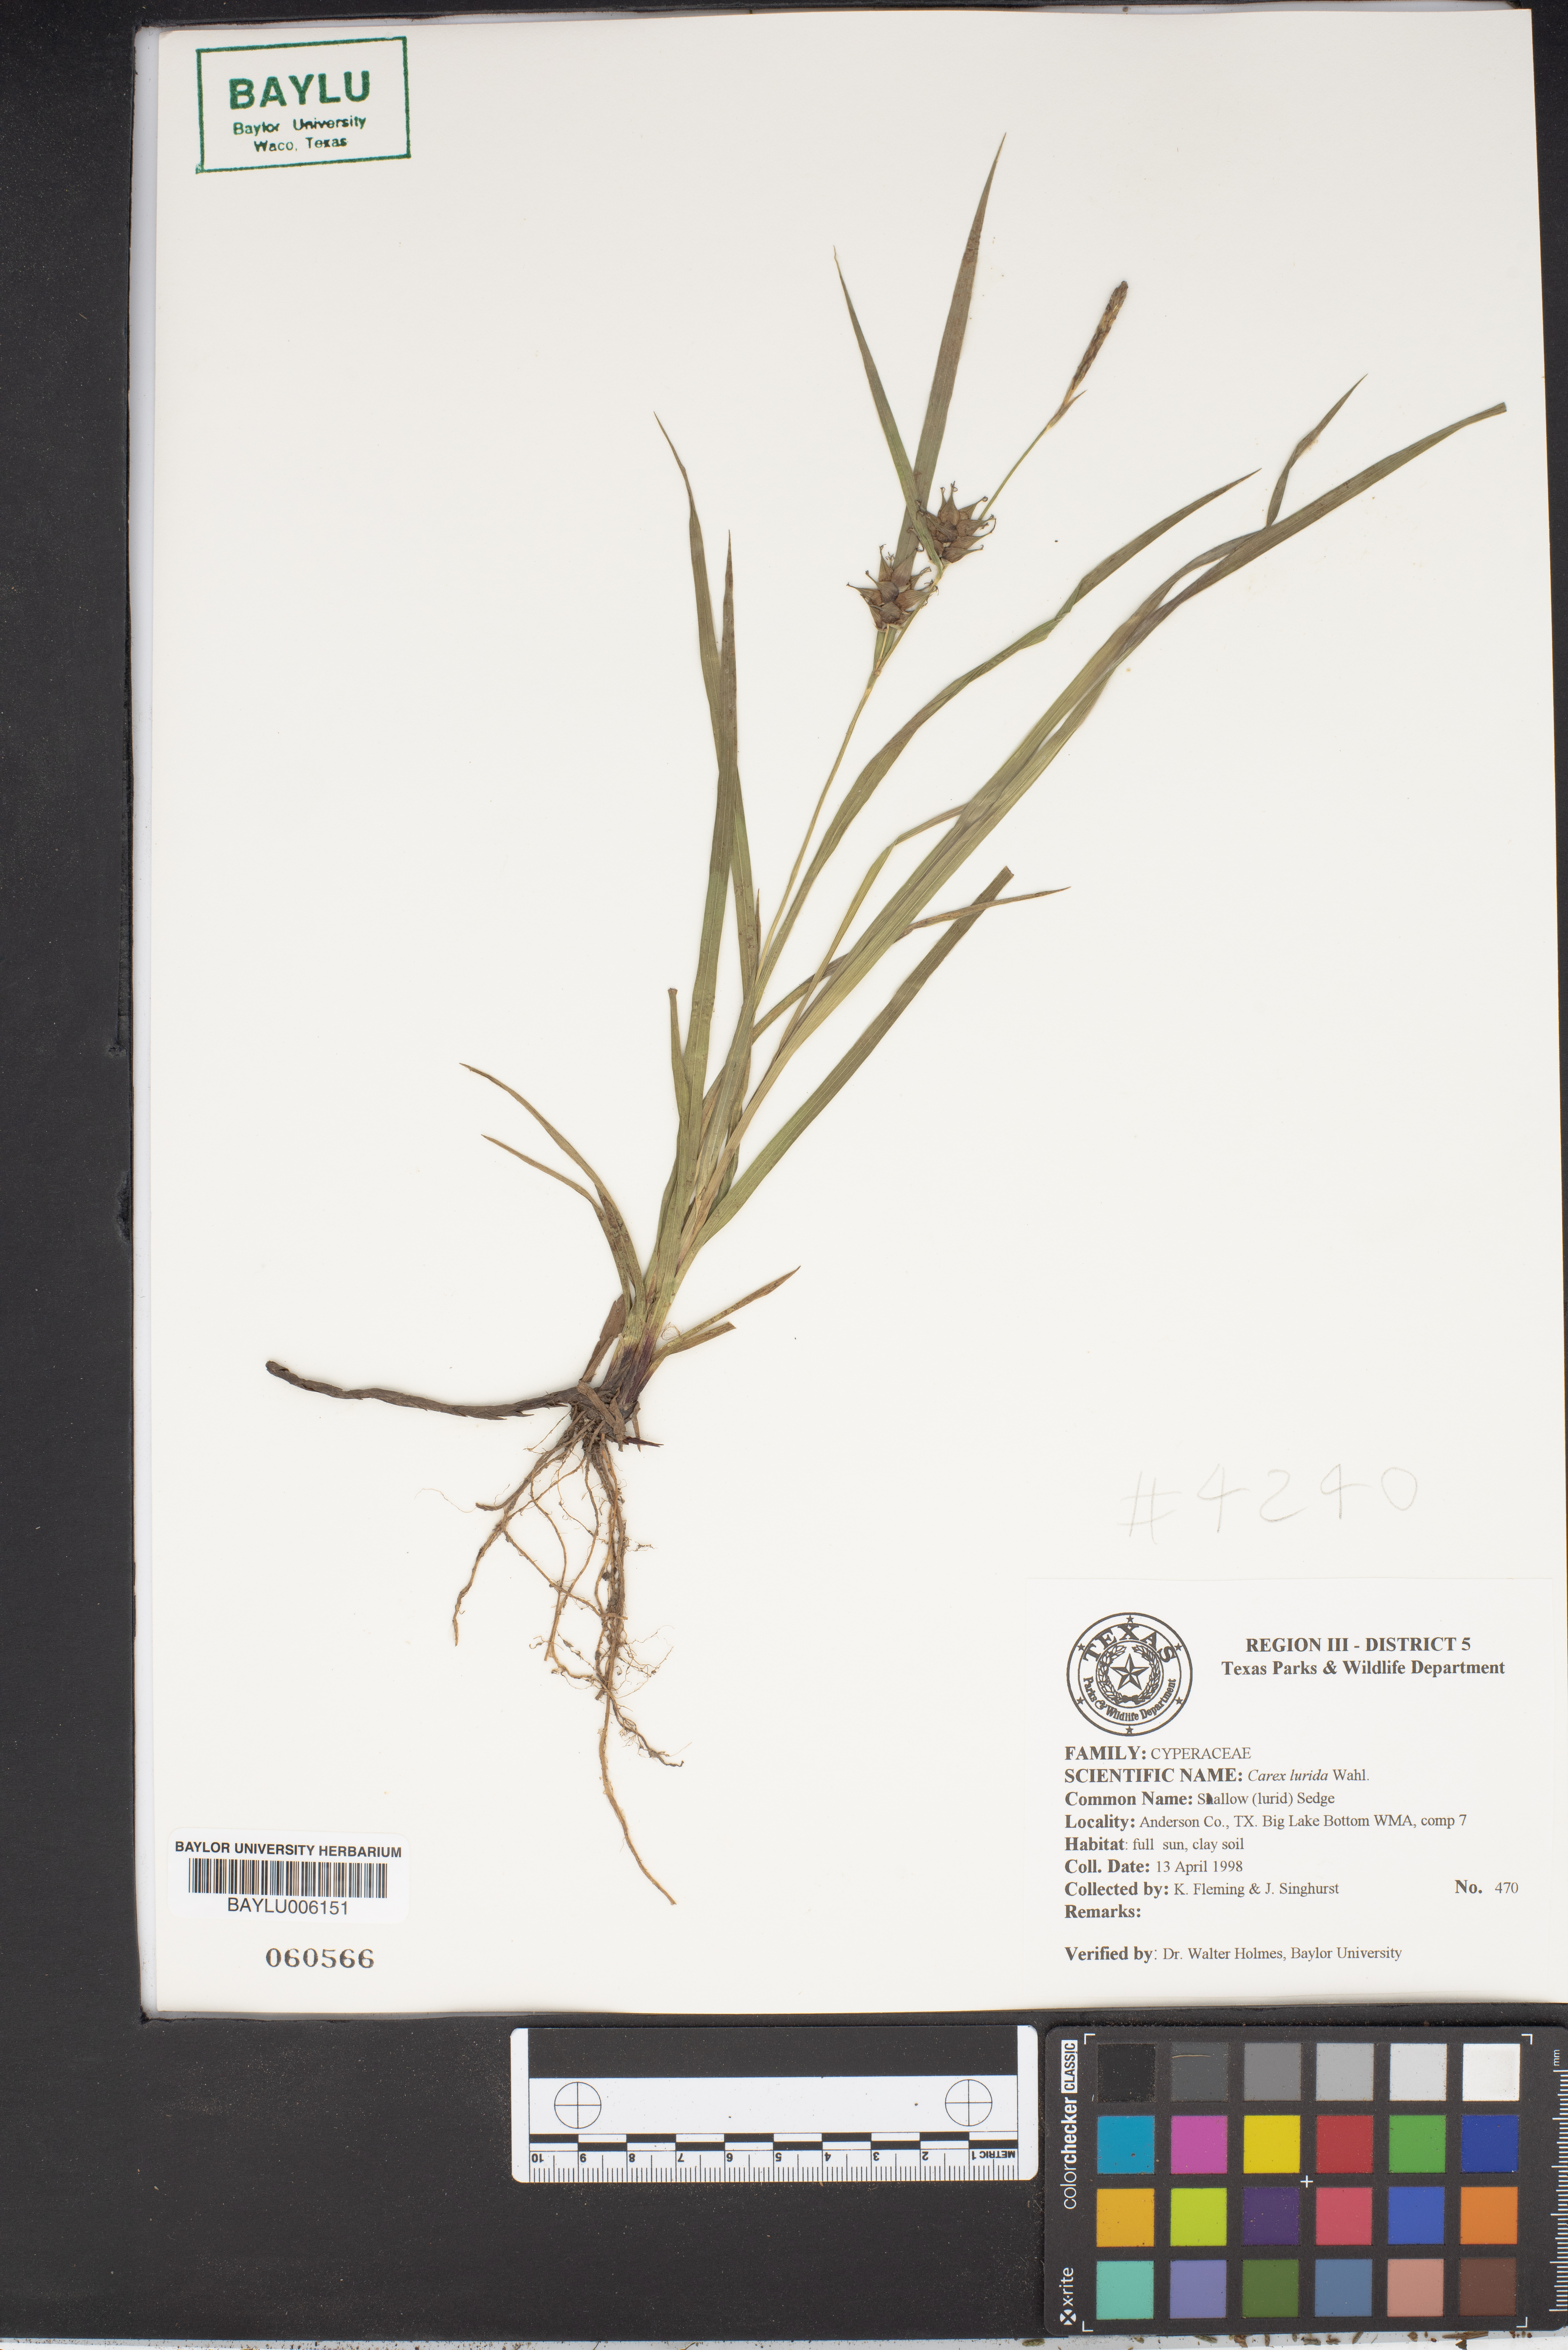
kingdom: Plantae
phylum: Tracheophyta
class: Liliopsida
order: Poales
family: Cyperaceae
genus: Carex
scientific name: Carex lurida
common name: Sallow sedge
